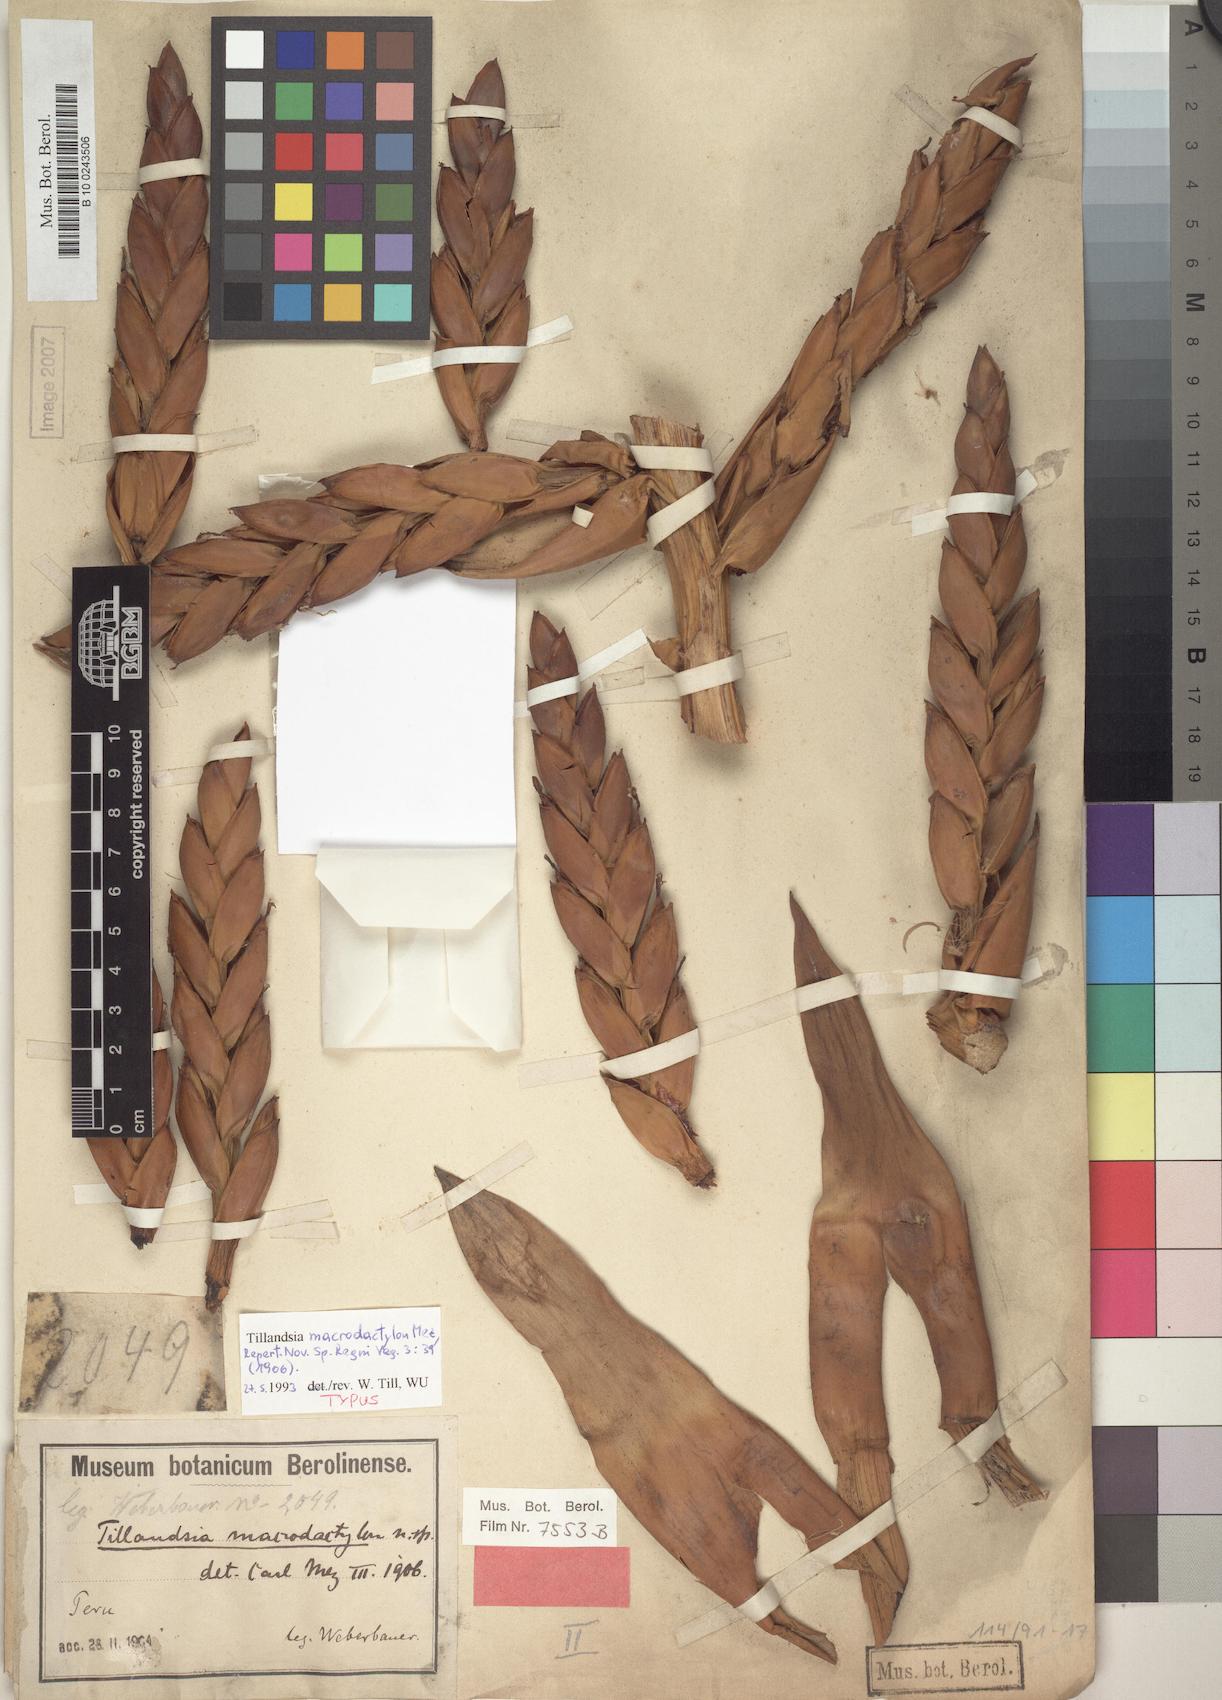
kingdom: Plantae
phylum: Tracheophyta
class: Liliopsida
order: Poales
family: Bromeliaceae
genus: Tillandsia
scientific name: Tillandsia macrodactylon
